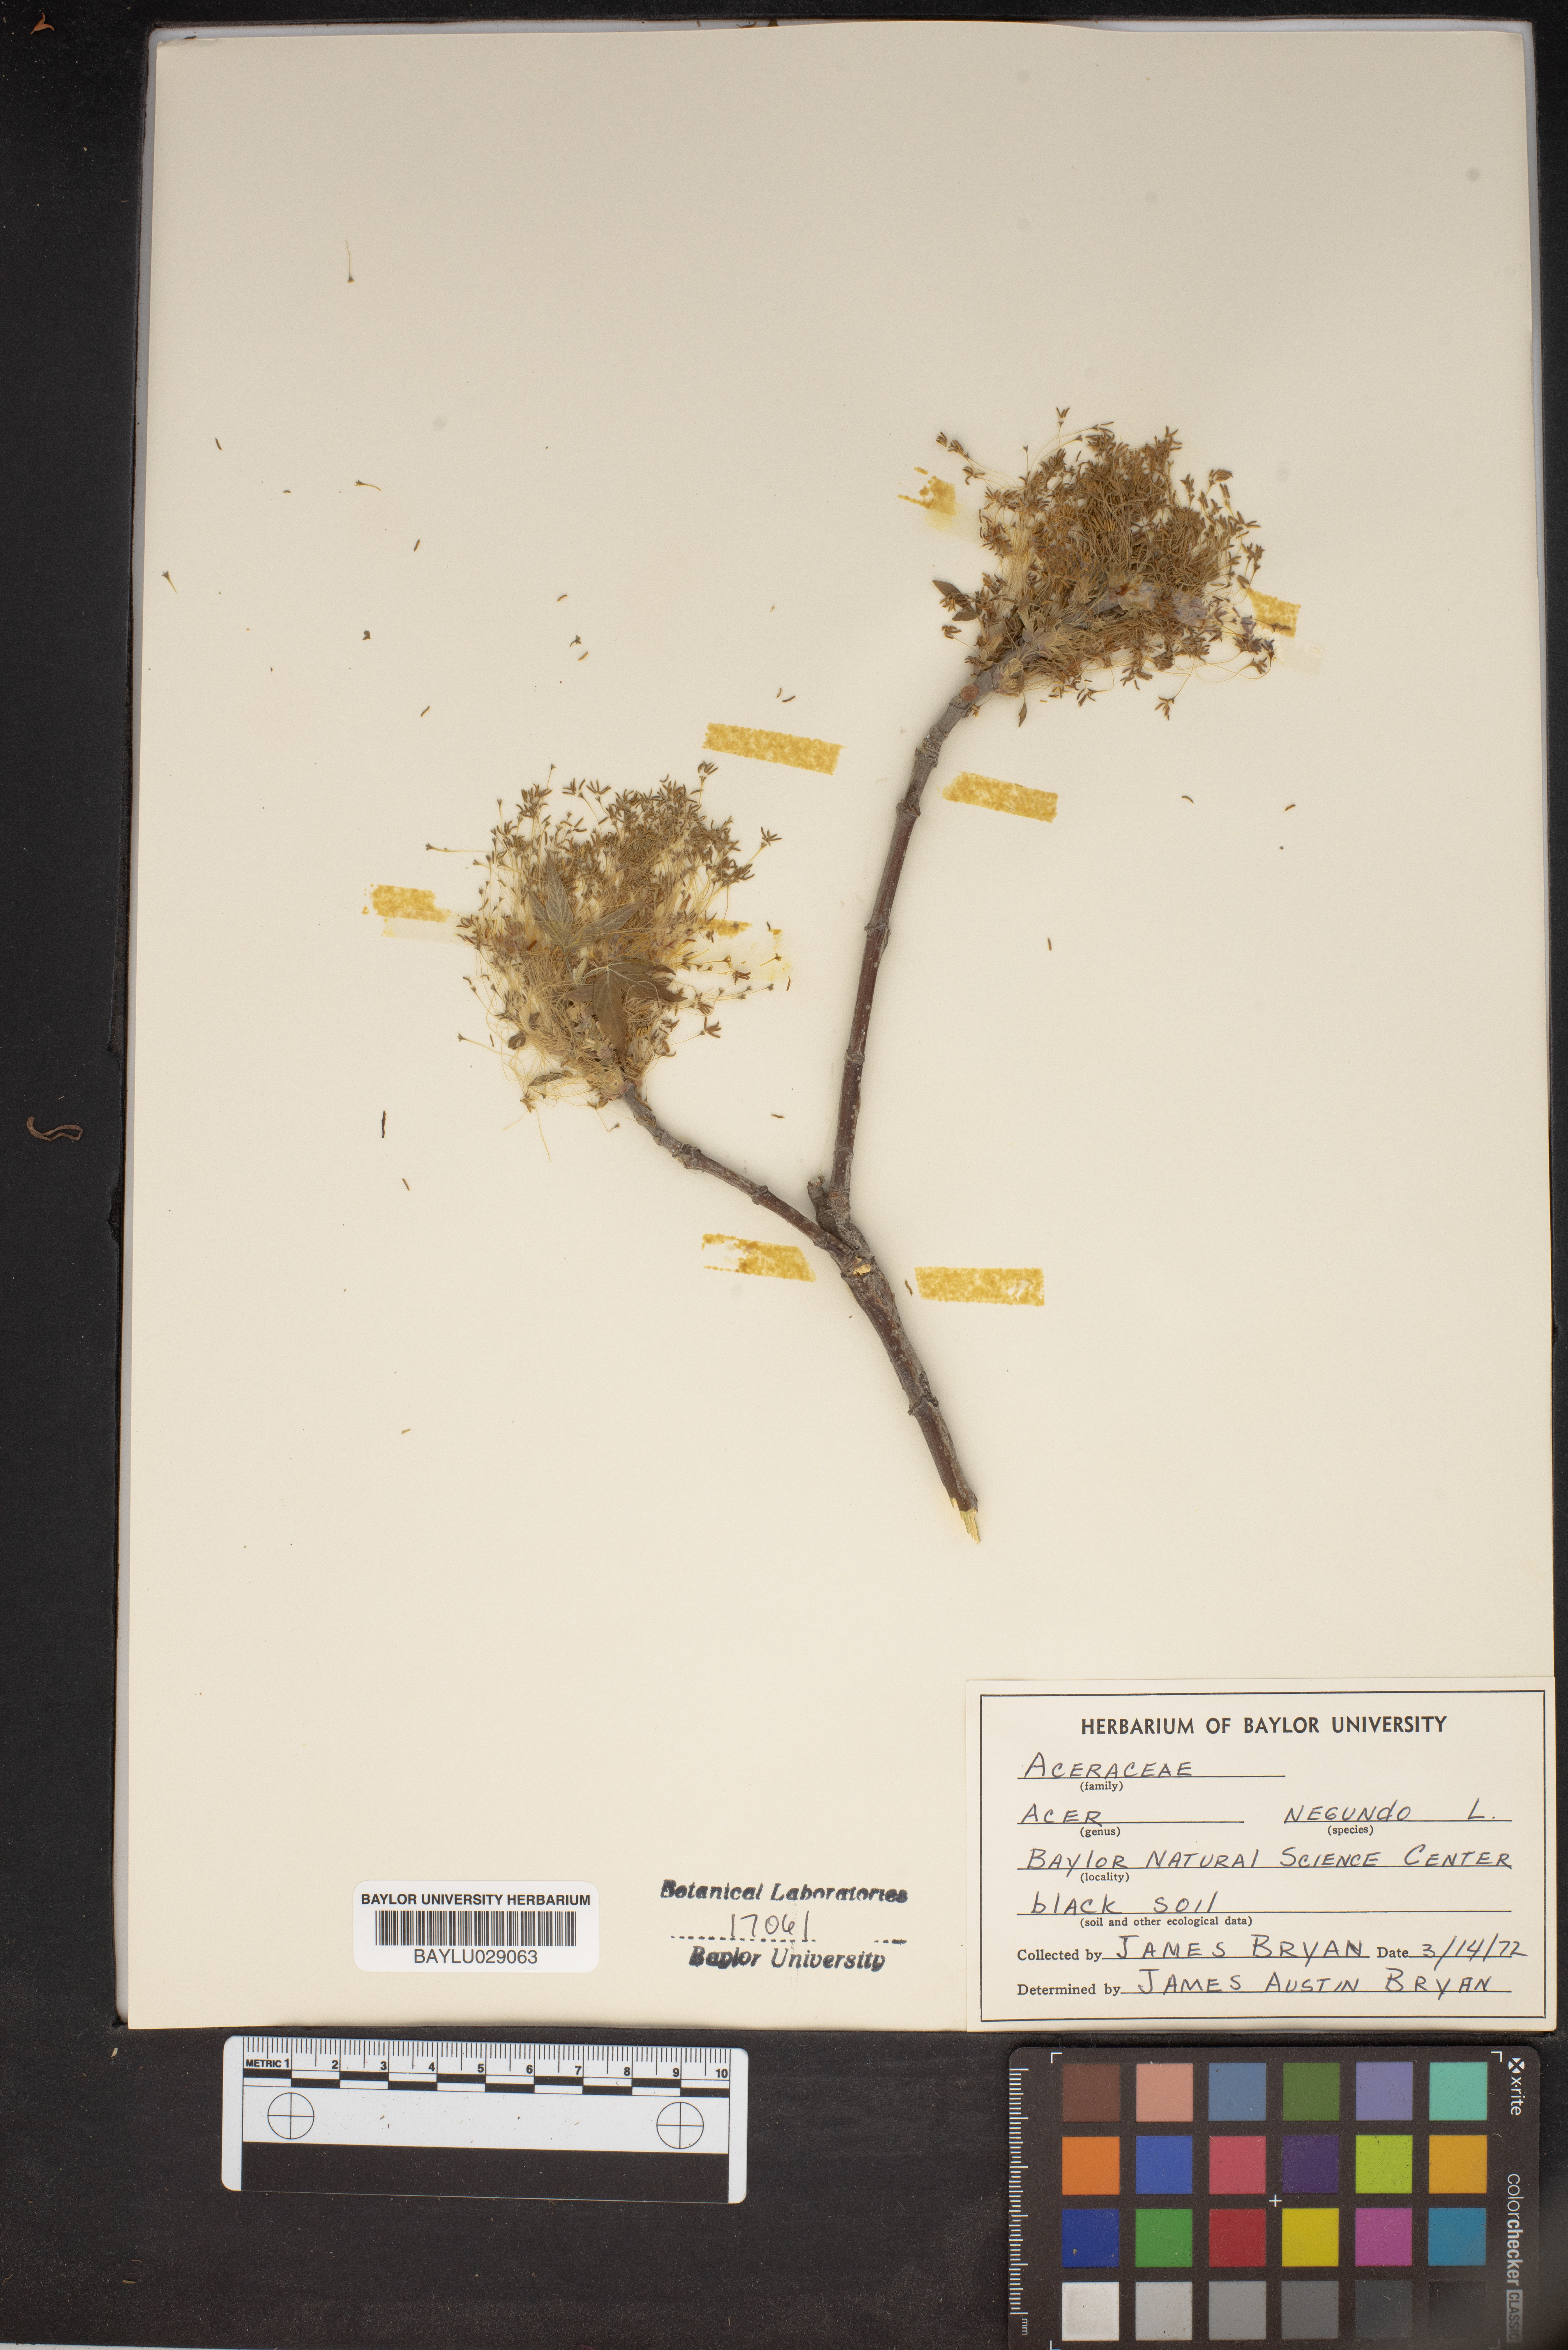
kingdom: Plantae
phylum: Tracheophyta
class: Magnoliopsida
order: Sapindales
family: Sapindaceae
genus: Acer
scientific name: Acer negundo
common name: Ashleaf maple
